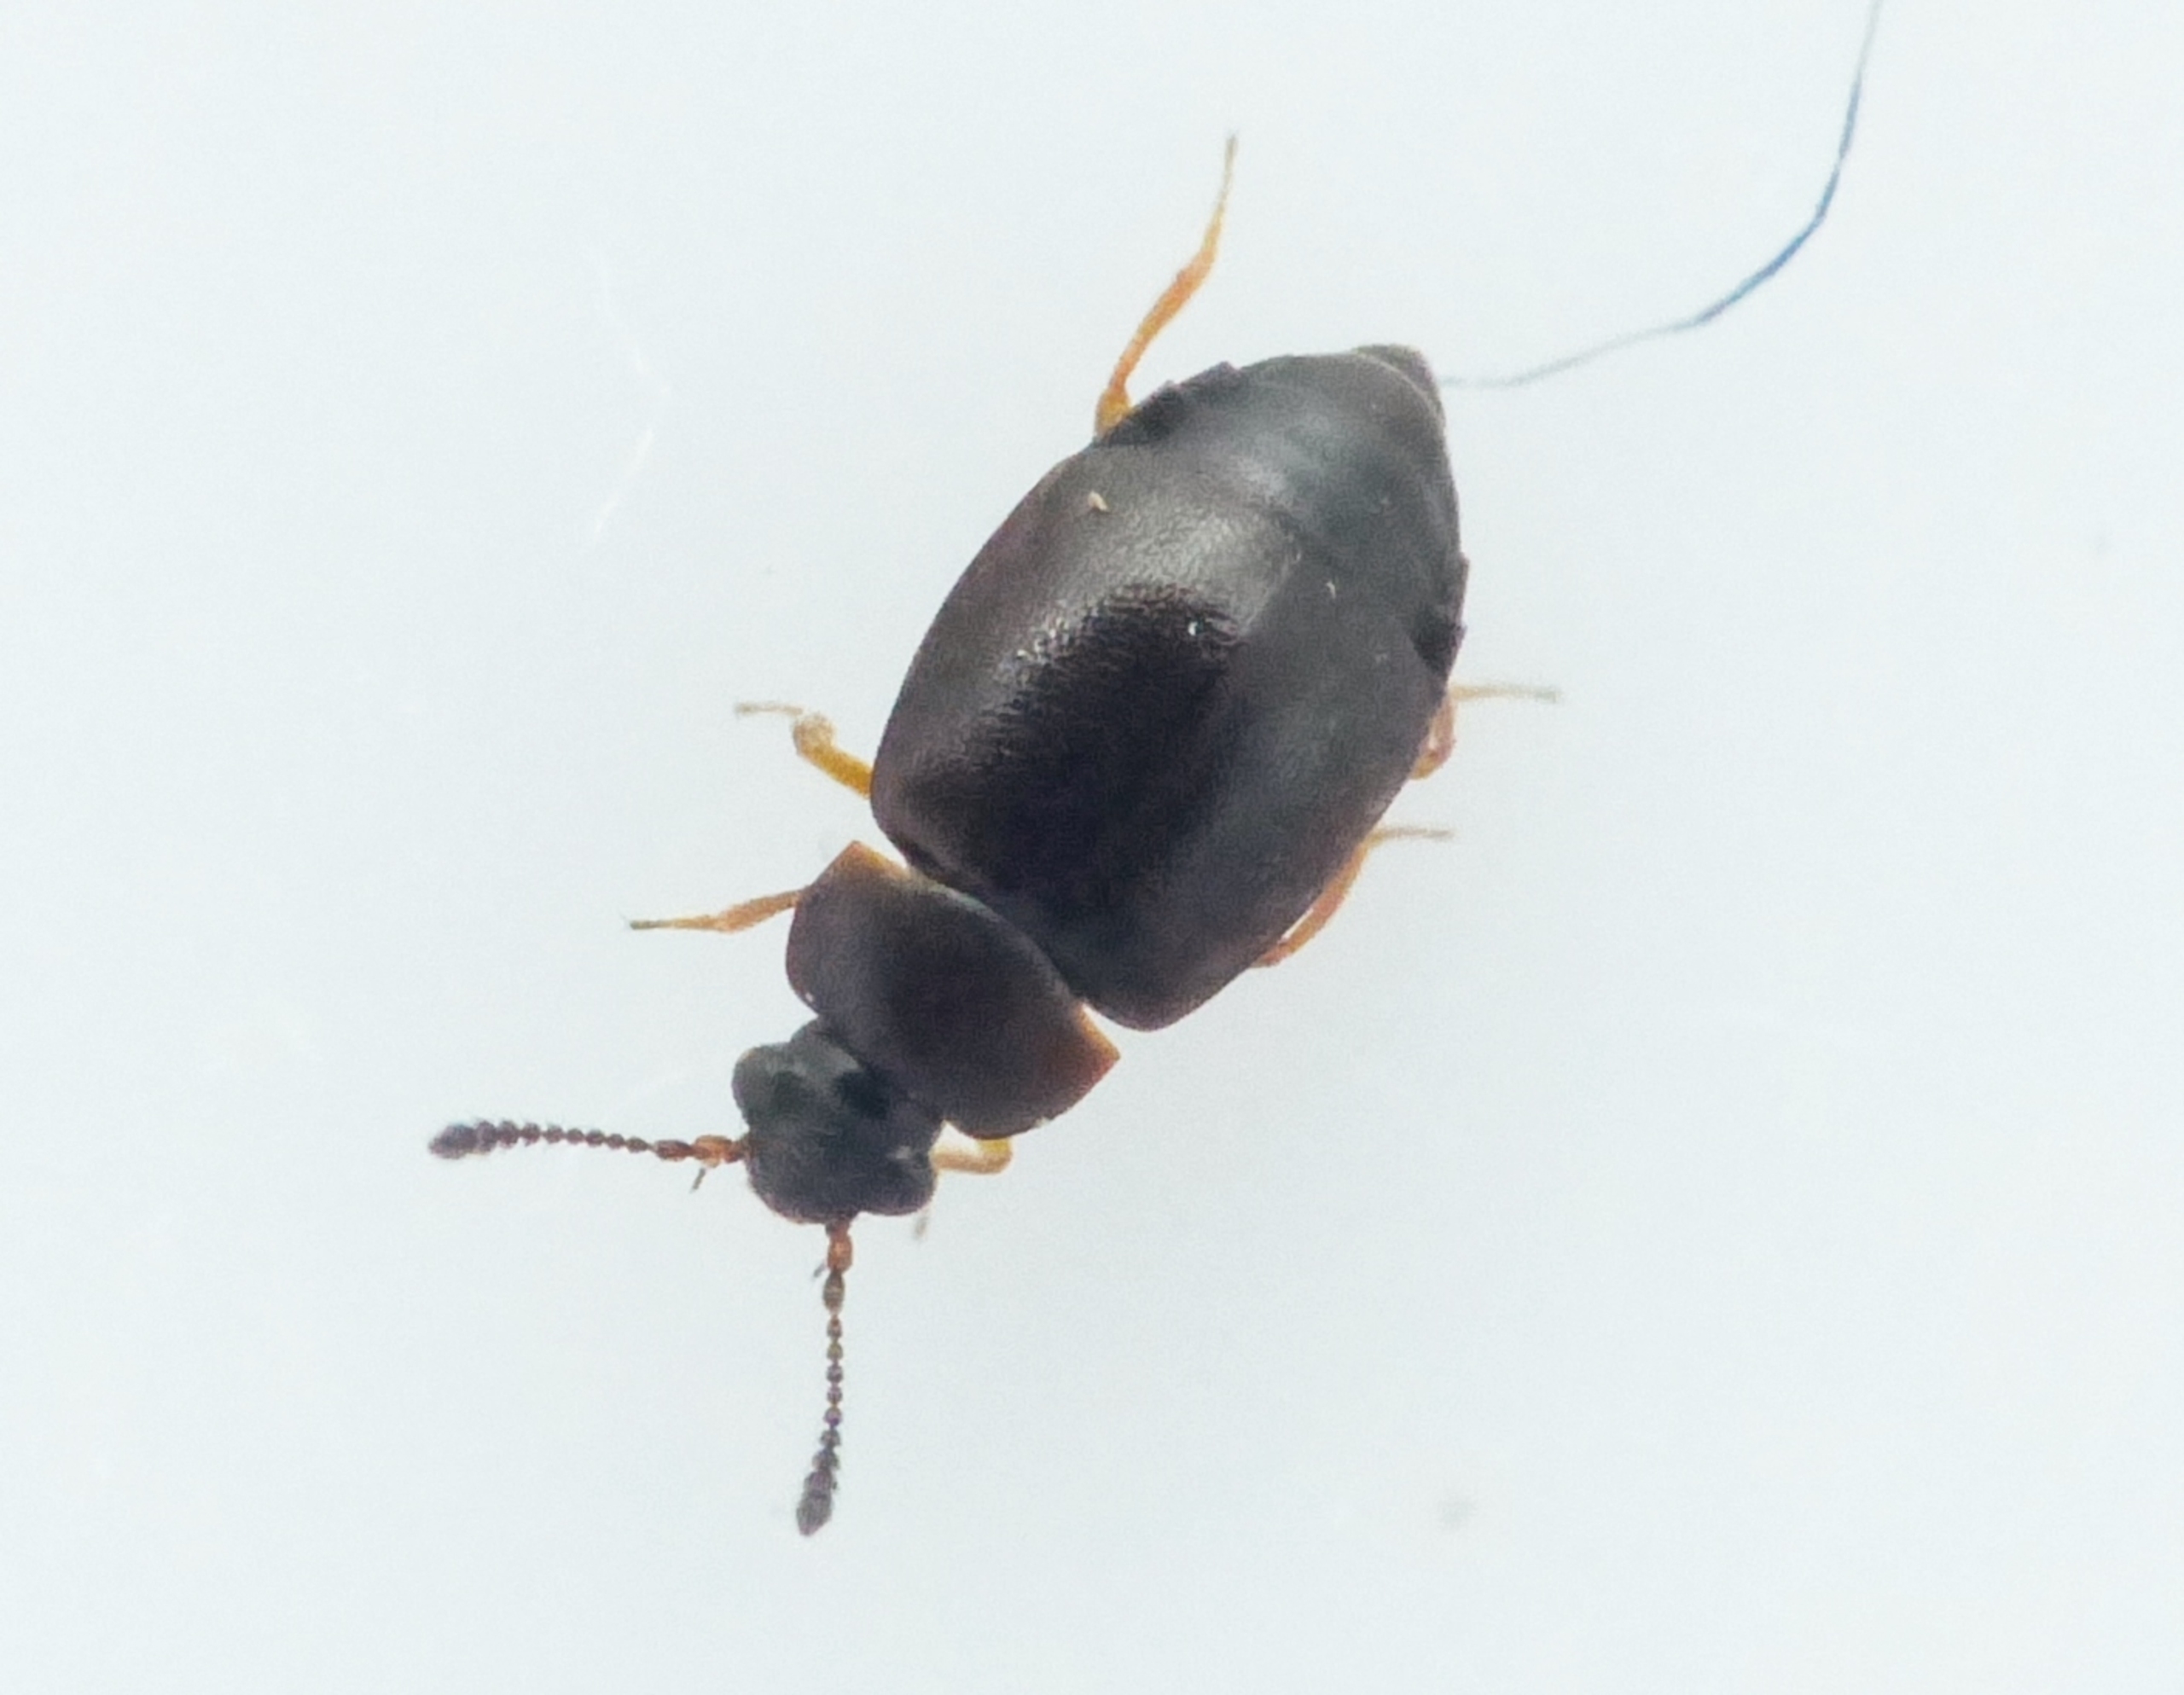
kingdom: Animalia
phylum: Arthropoda
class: Insecta
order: Coleoptera
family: Staphylinidae
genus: Proteinus
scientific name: Proteinus brachypterus
